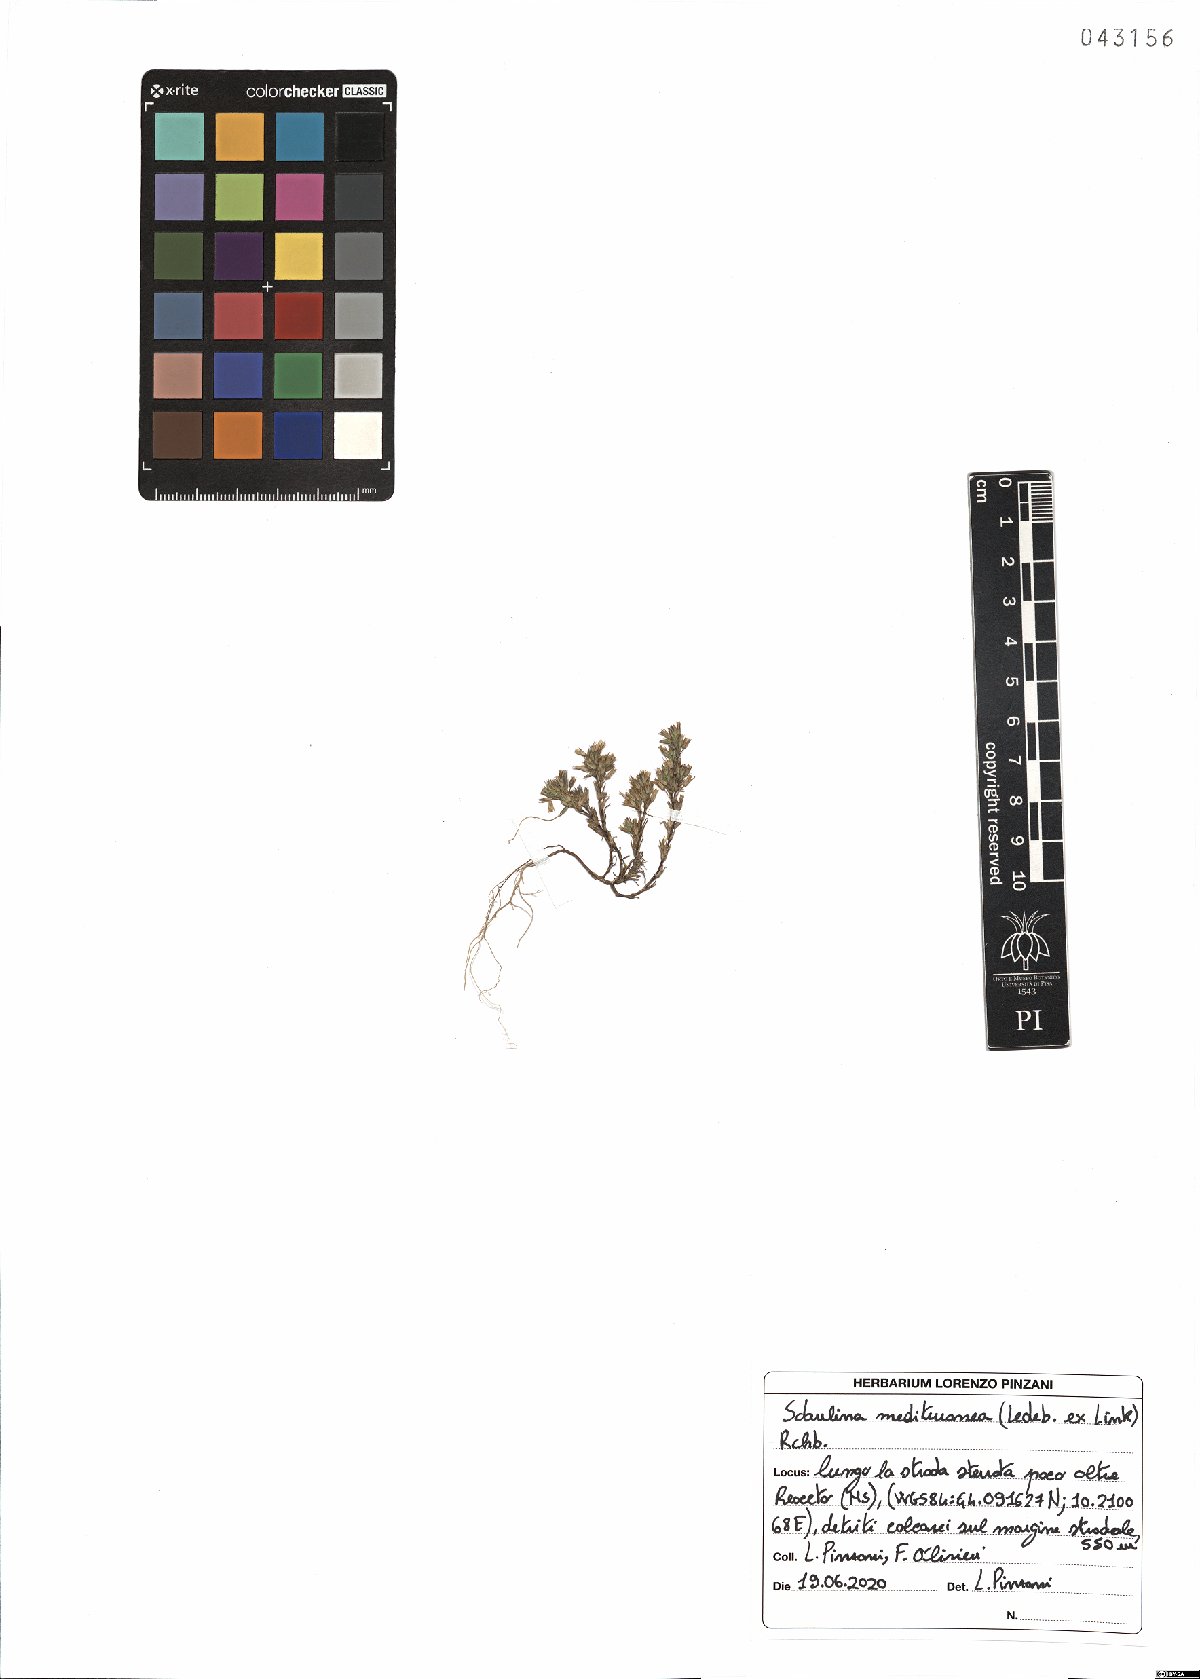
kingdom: Plantae
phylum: Tracheophyta
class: Magnoliopsida
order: Caryophyllales
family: Caryophyllaceae
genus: Sabulina
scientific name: Sabulina mediterranea
